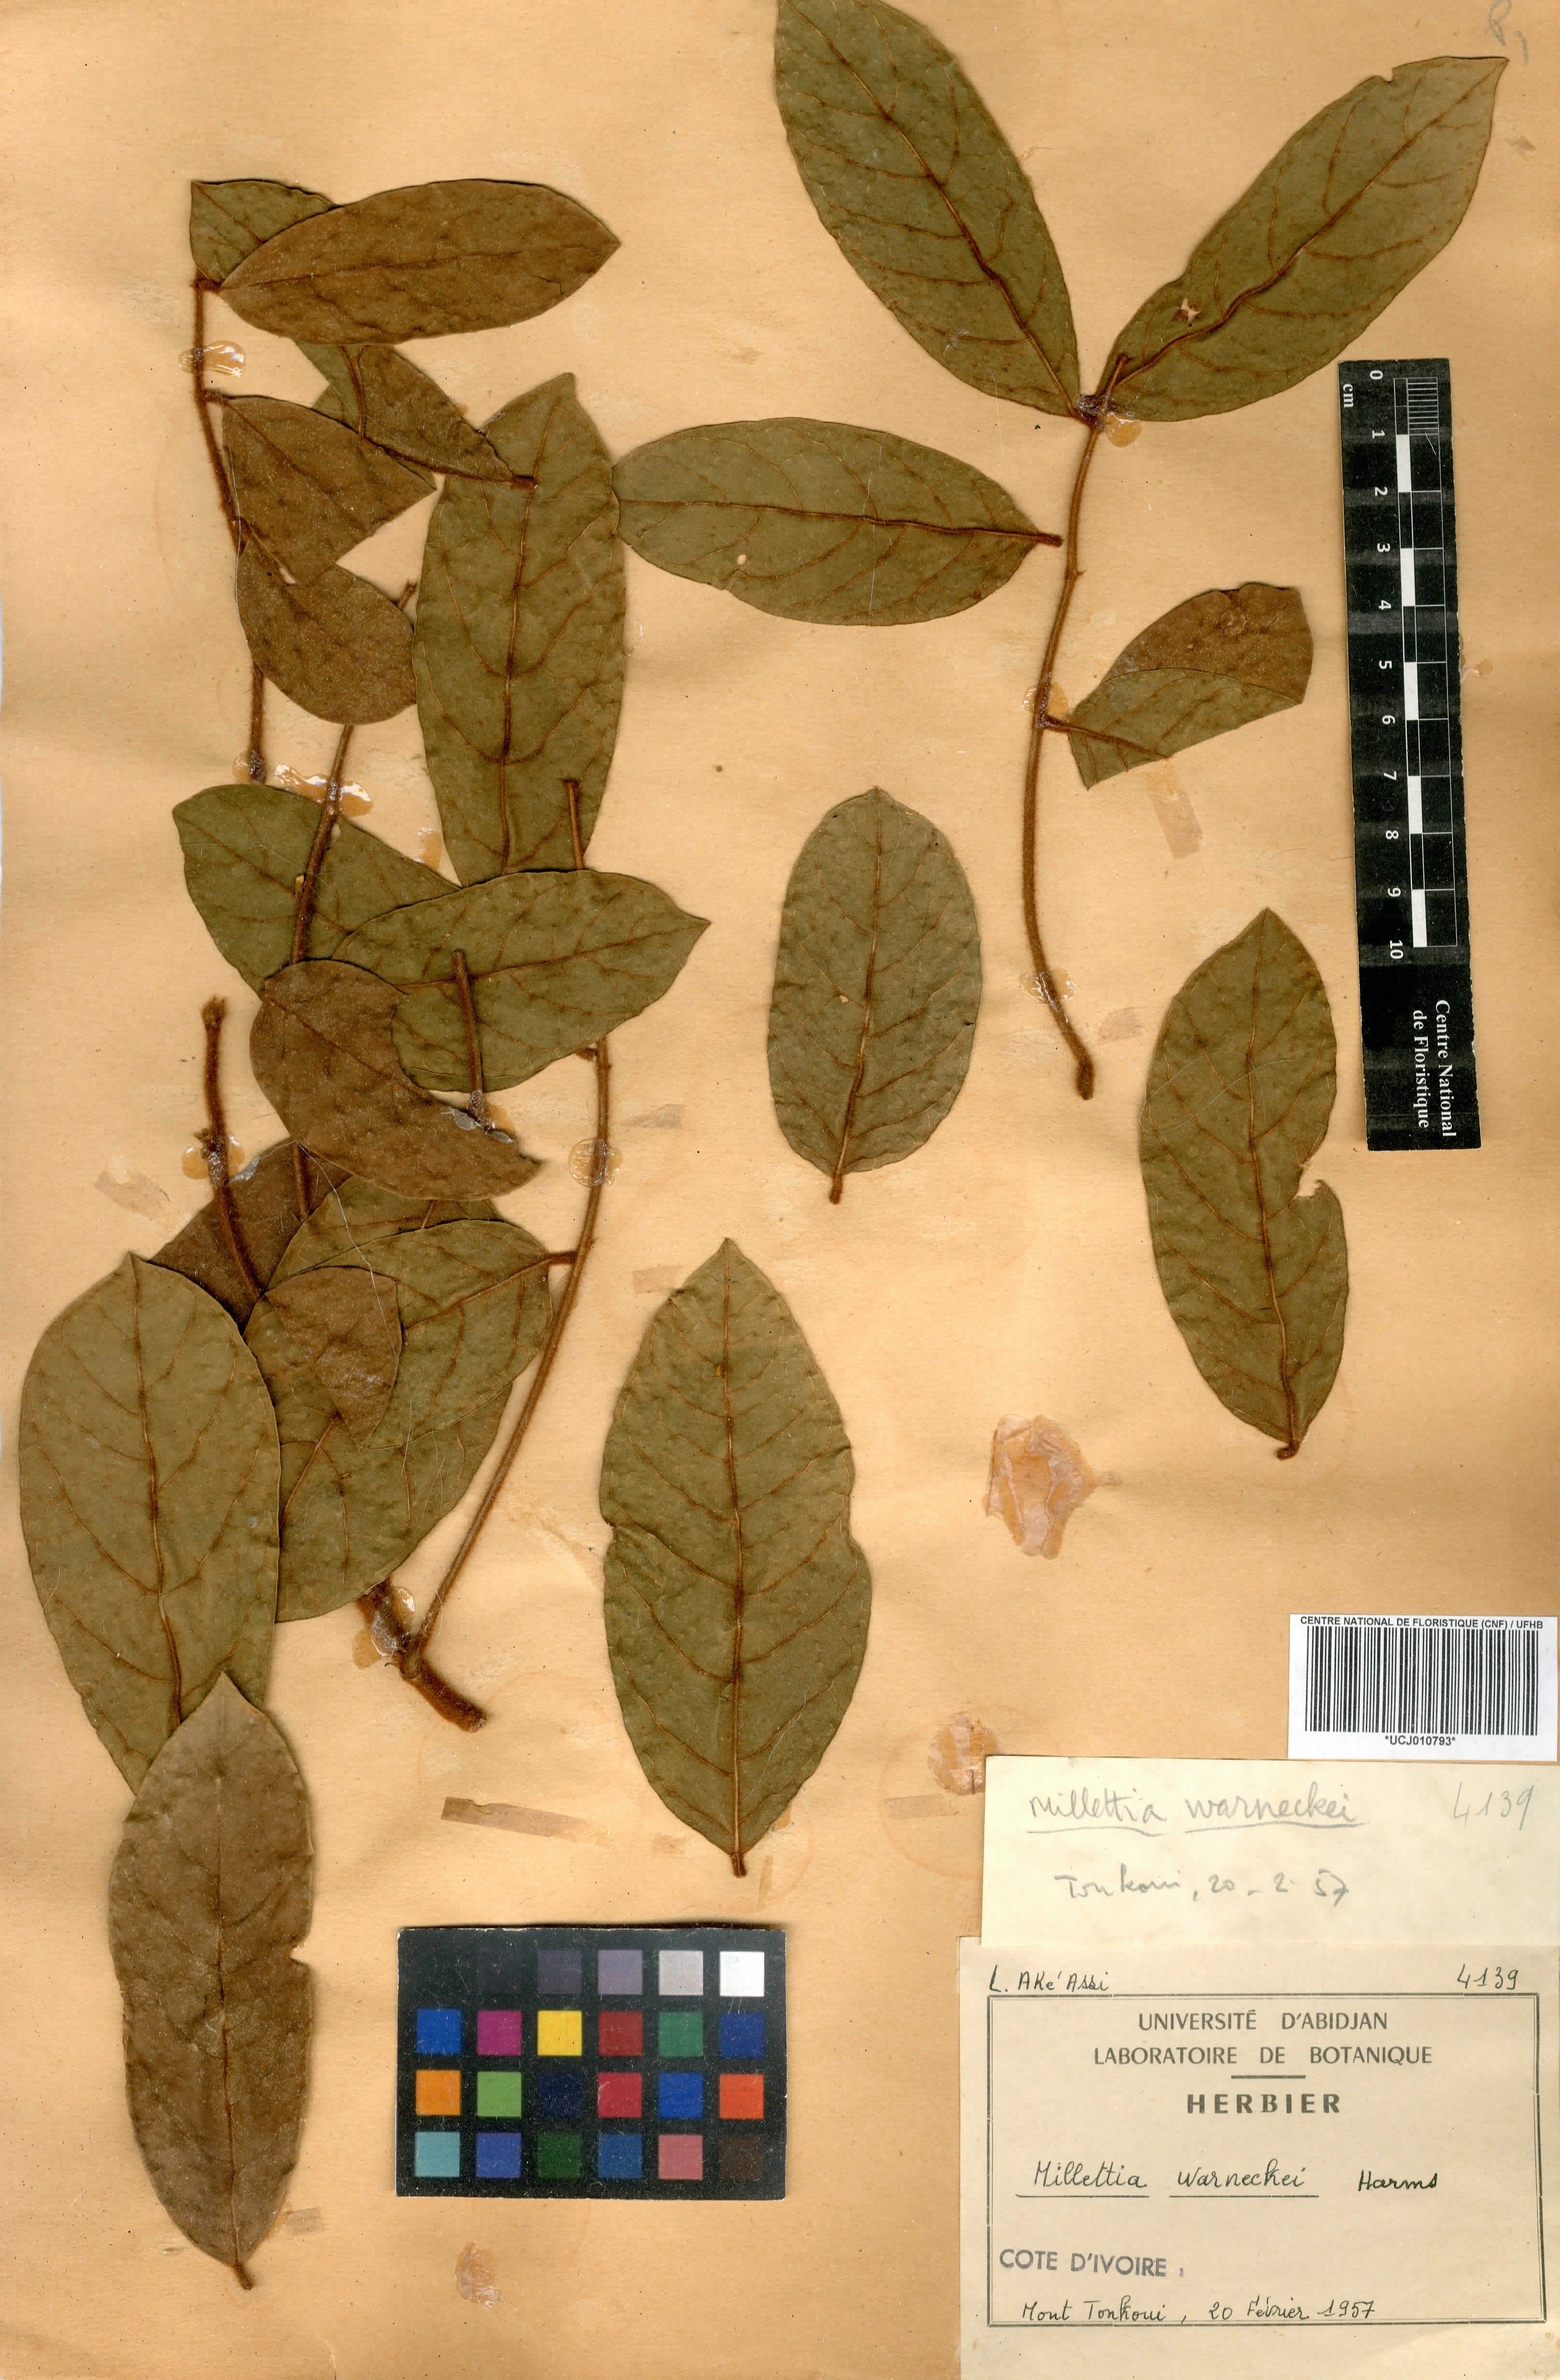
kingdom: Plantae
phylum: Tracheophyta
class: Magnoliopsida
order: Fabales
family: Fabaceae
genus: Millettia
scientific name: Millettia warneckei
